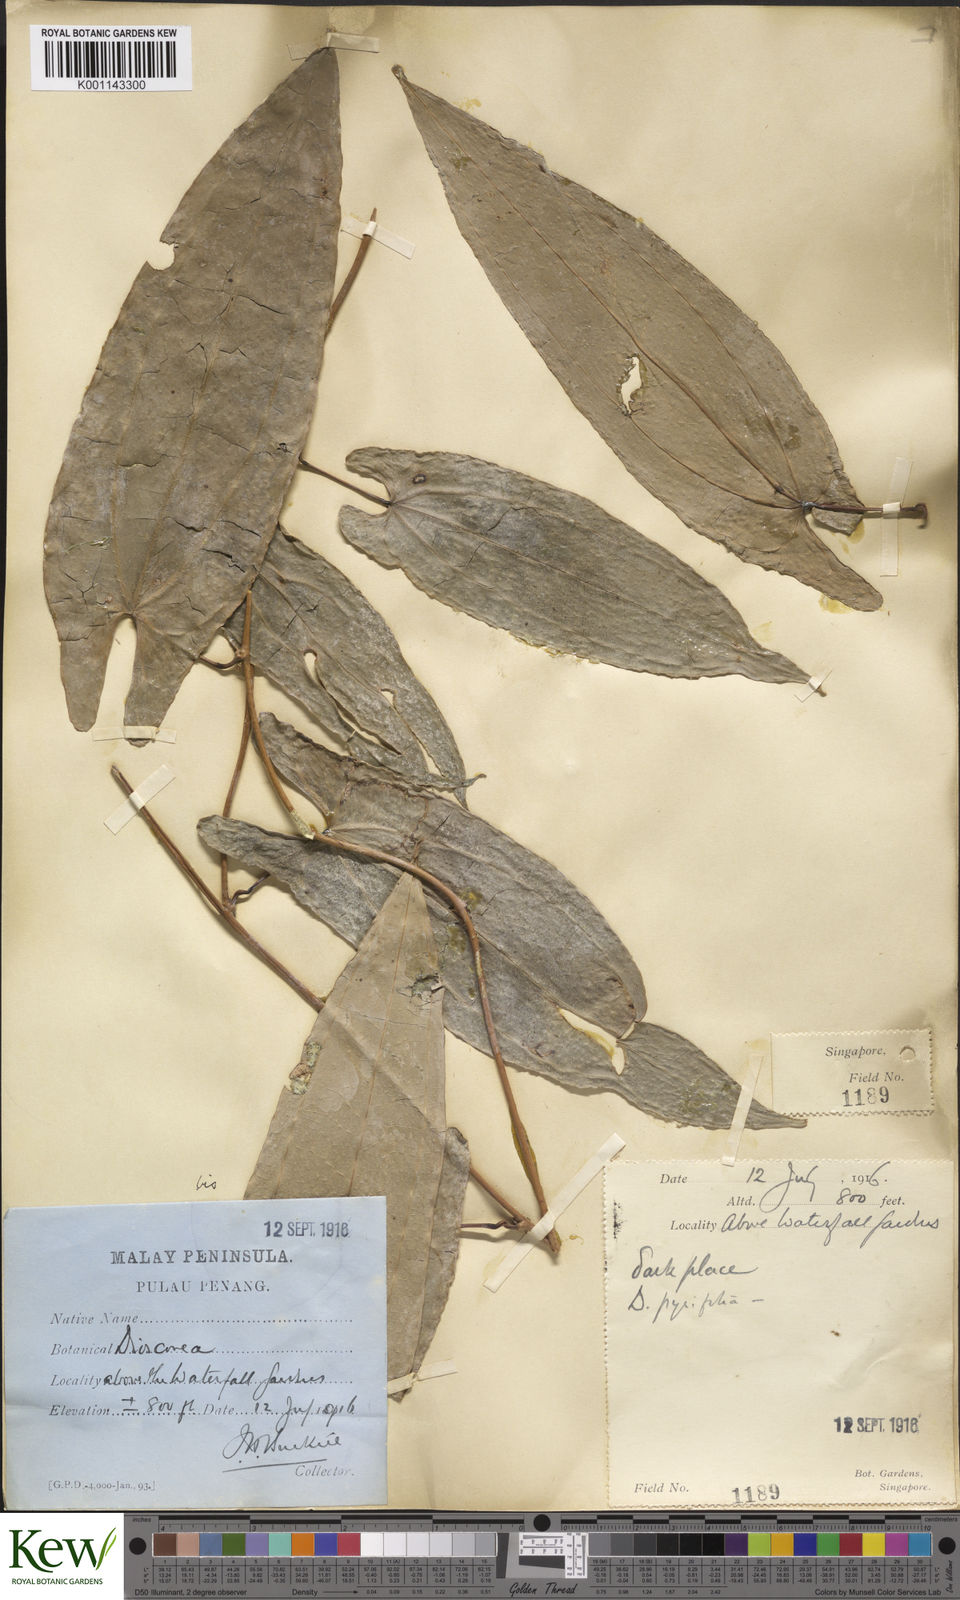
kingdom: Plantae
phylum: Tracheophyta
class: Liliopsida
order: Dioscoreales
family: Dioscoreaceae
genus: Dioscorea
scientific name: Dioscorea glabra
